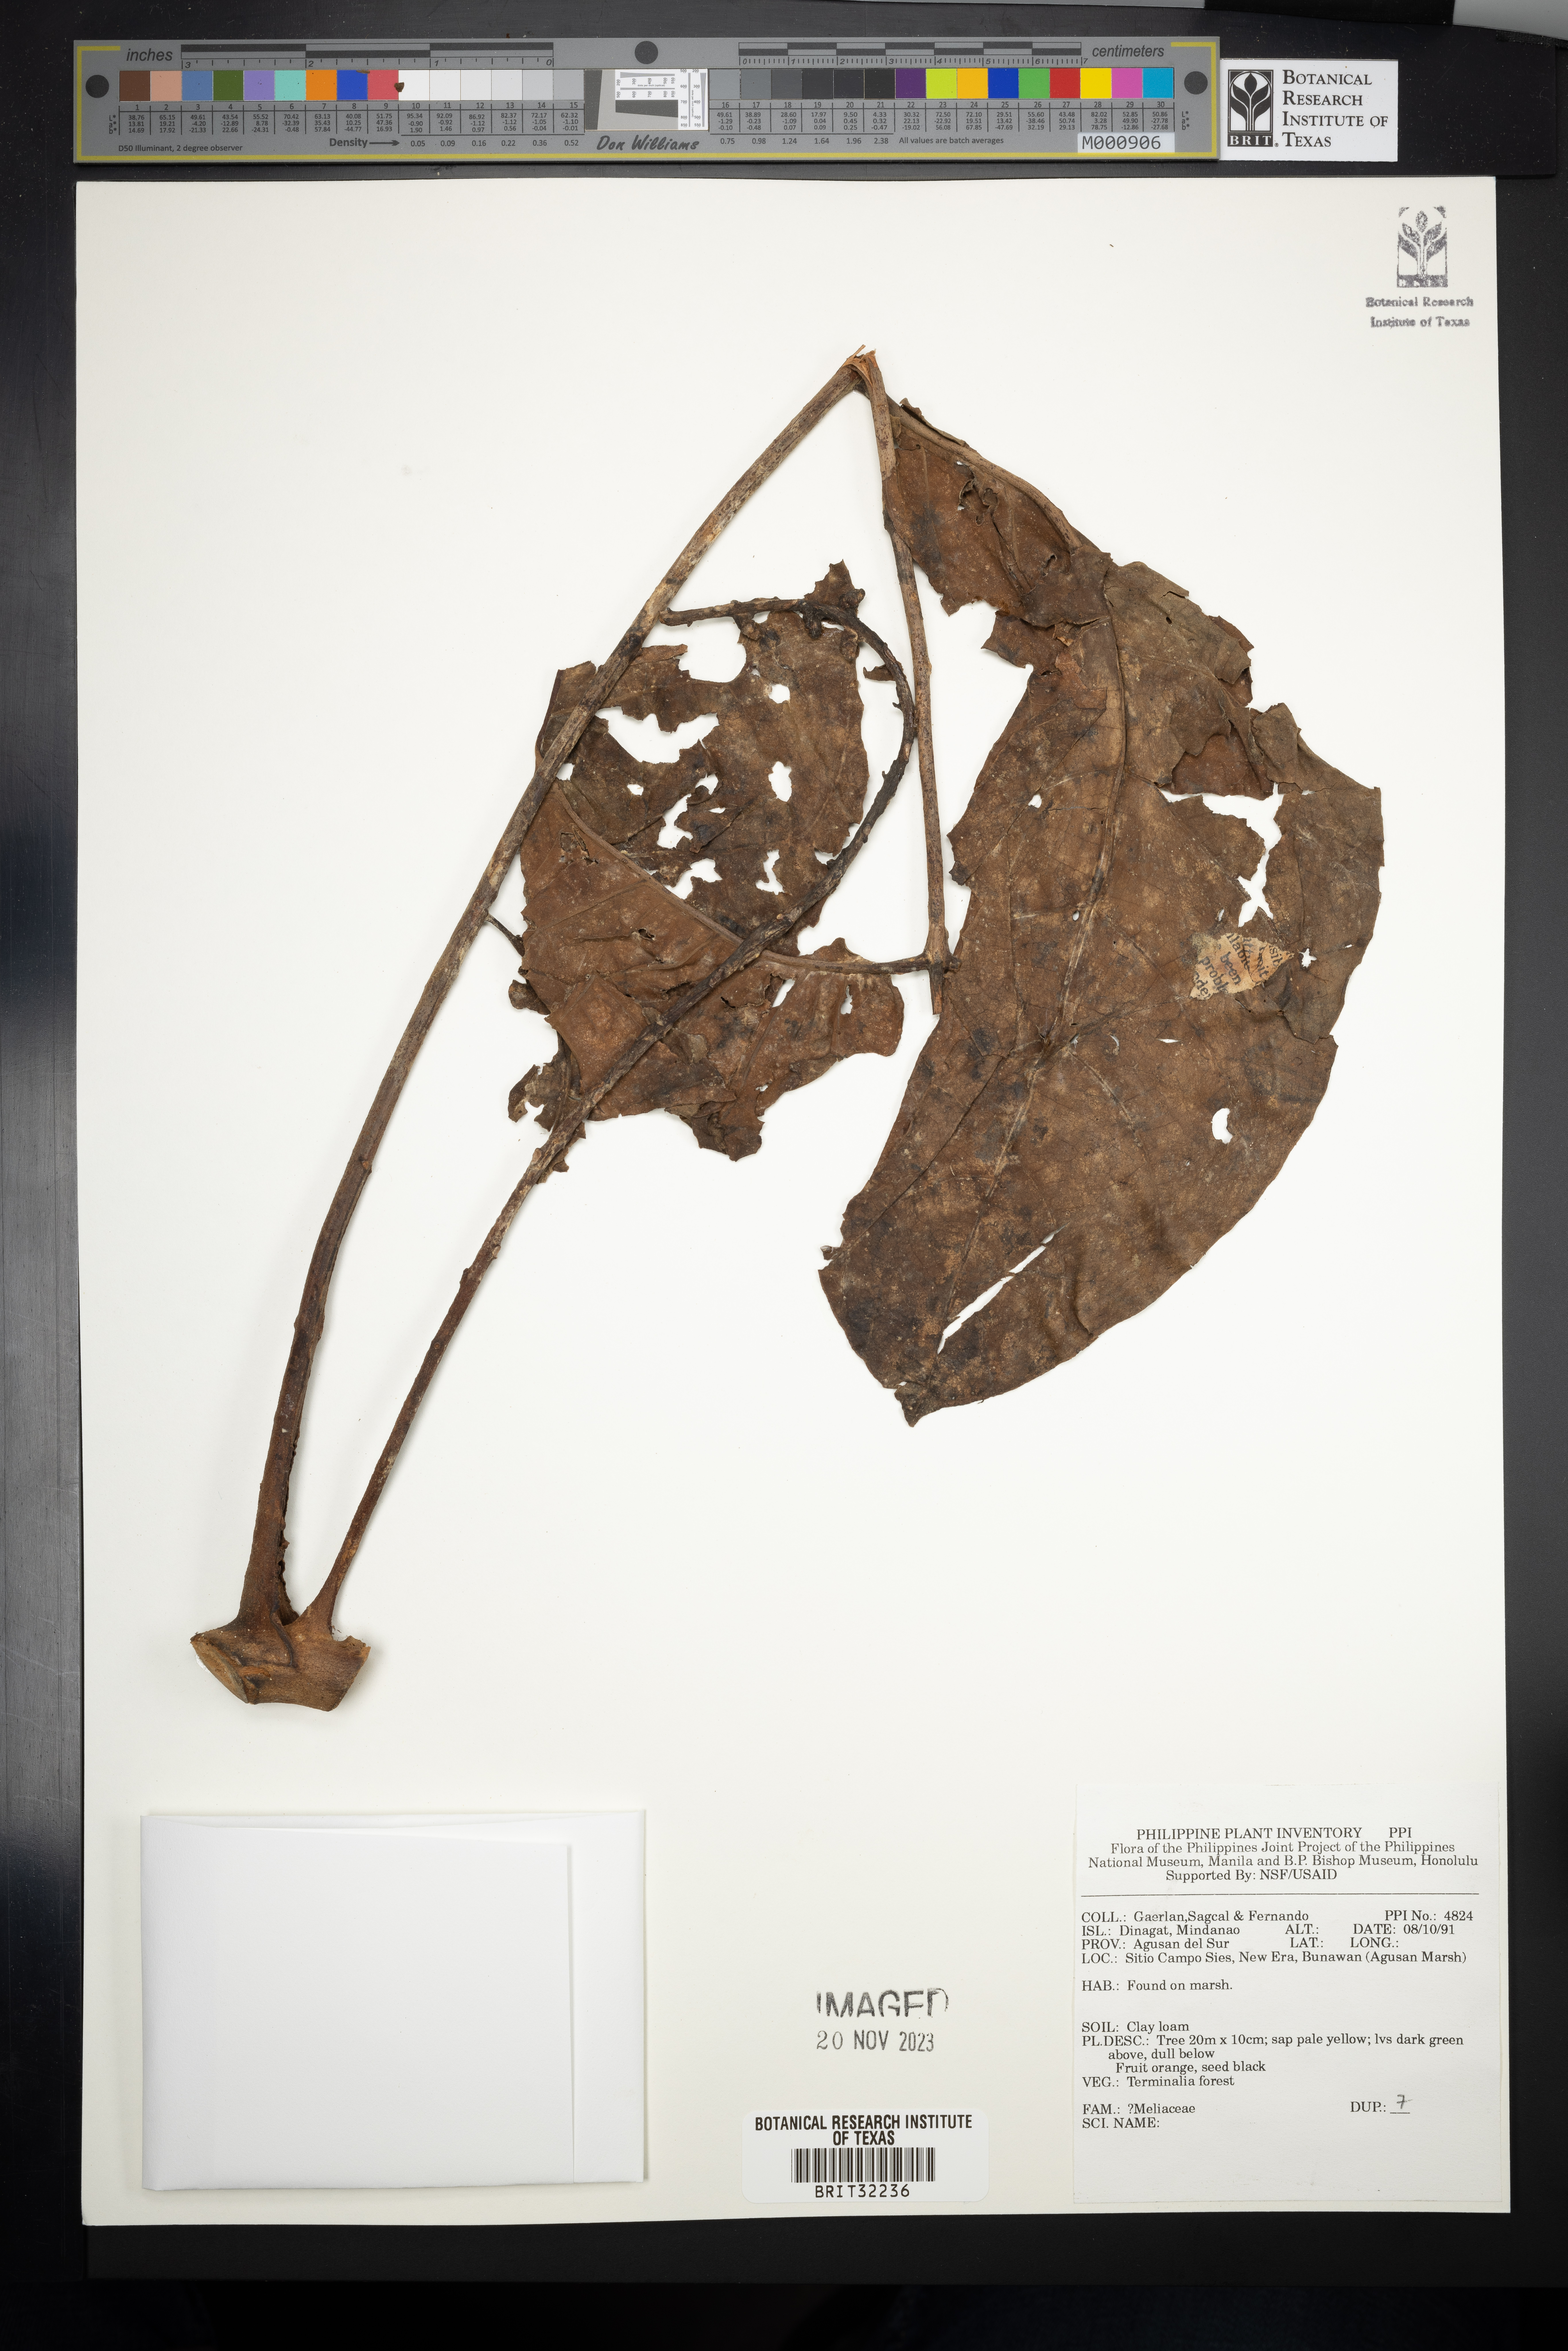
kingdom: Plantae
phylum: Tracheophyta
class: Magnoliopsida
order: Sapindales
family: Meliaceae
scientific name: Meliaceae
